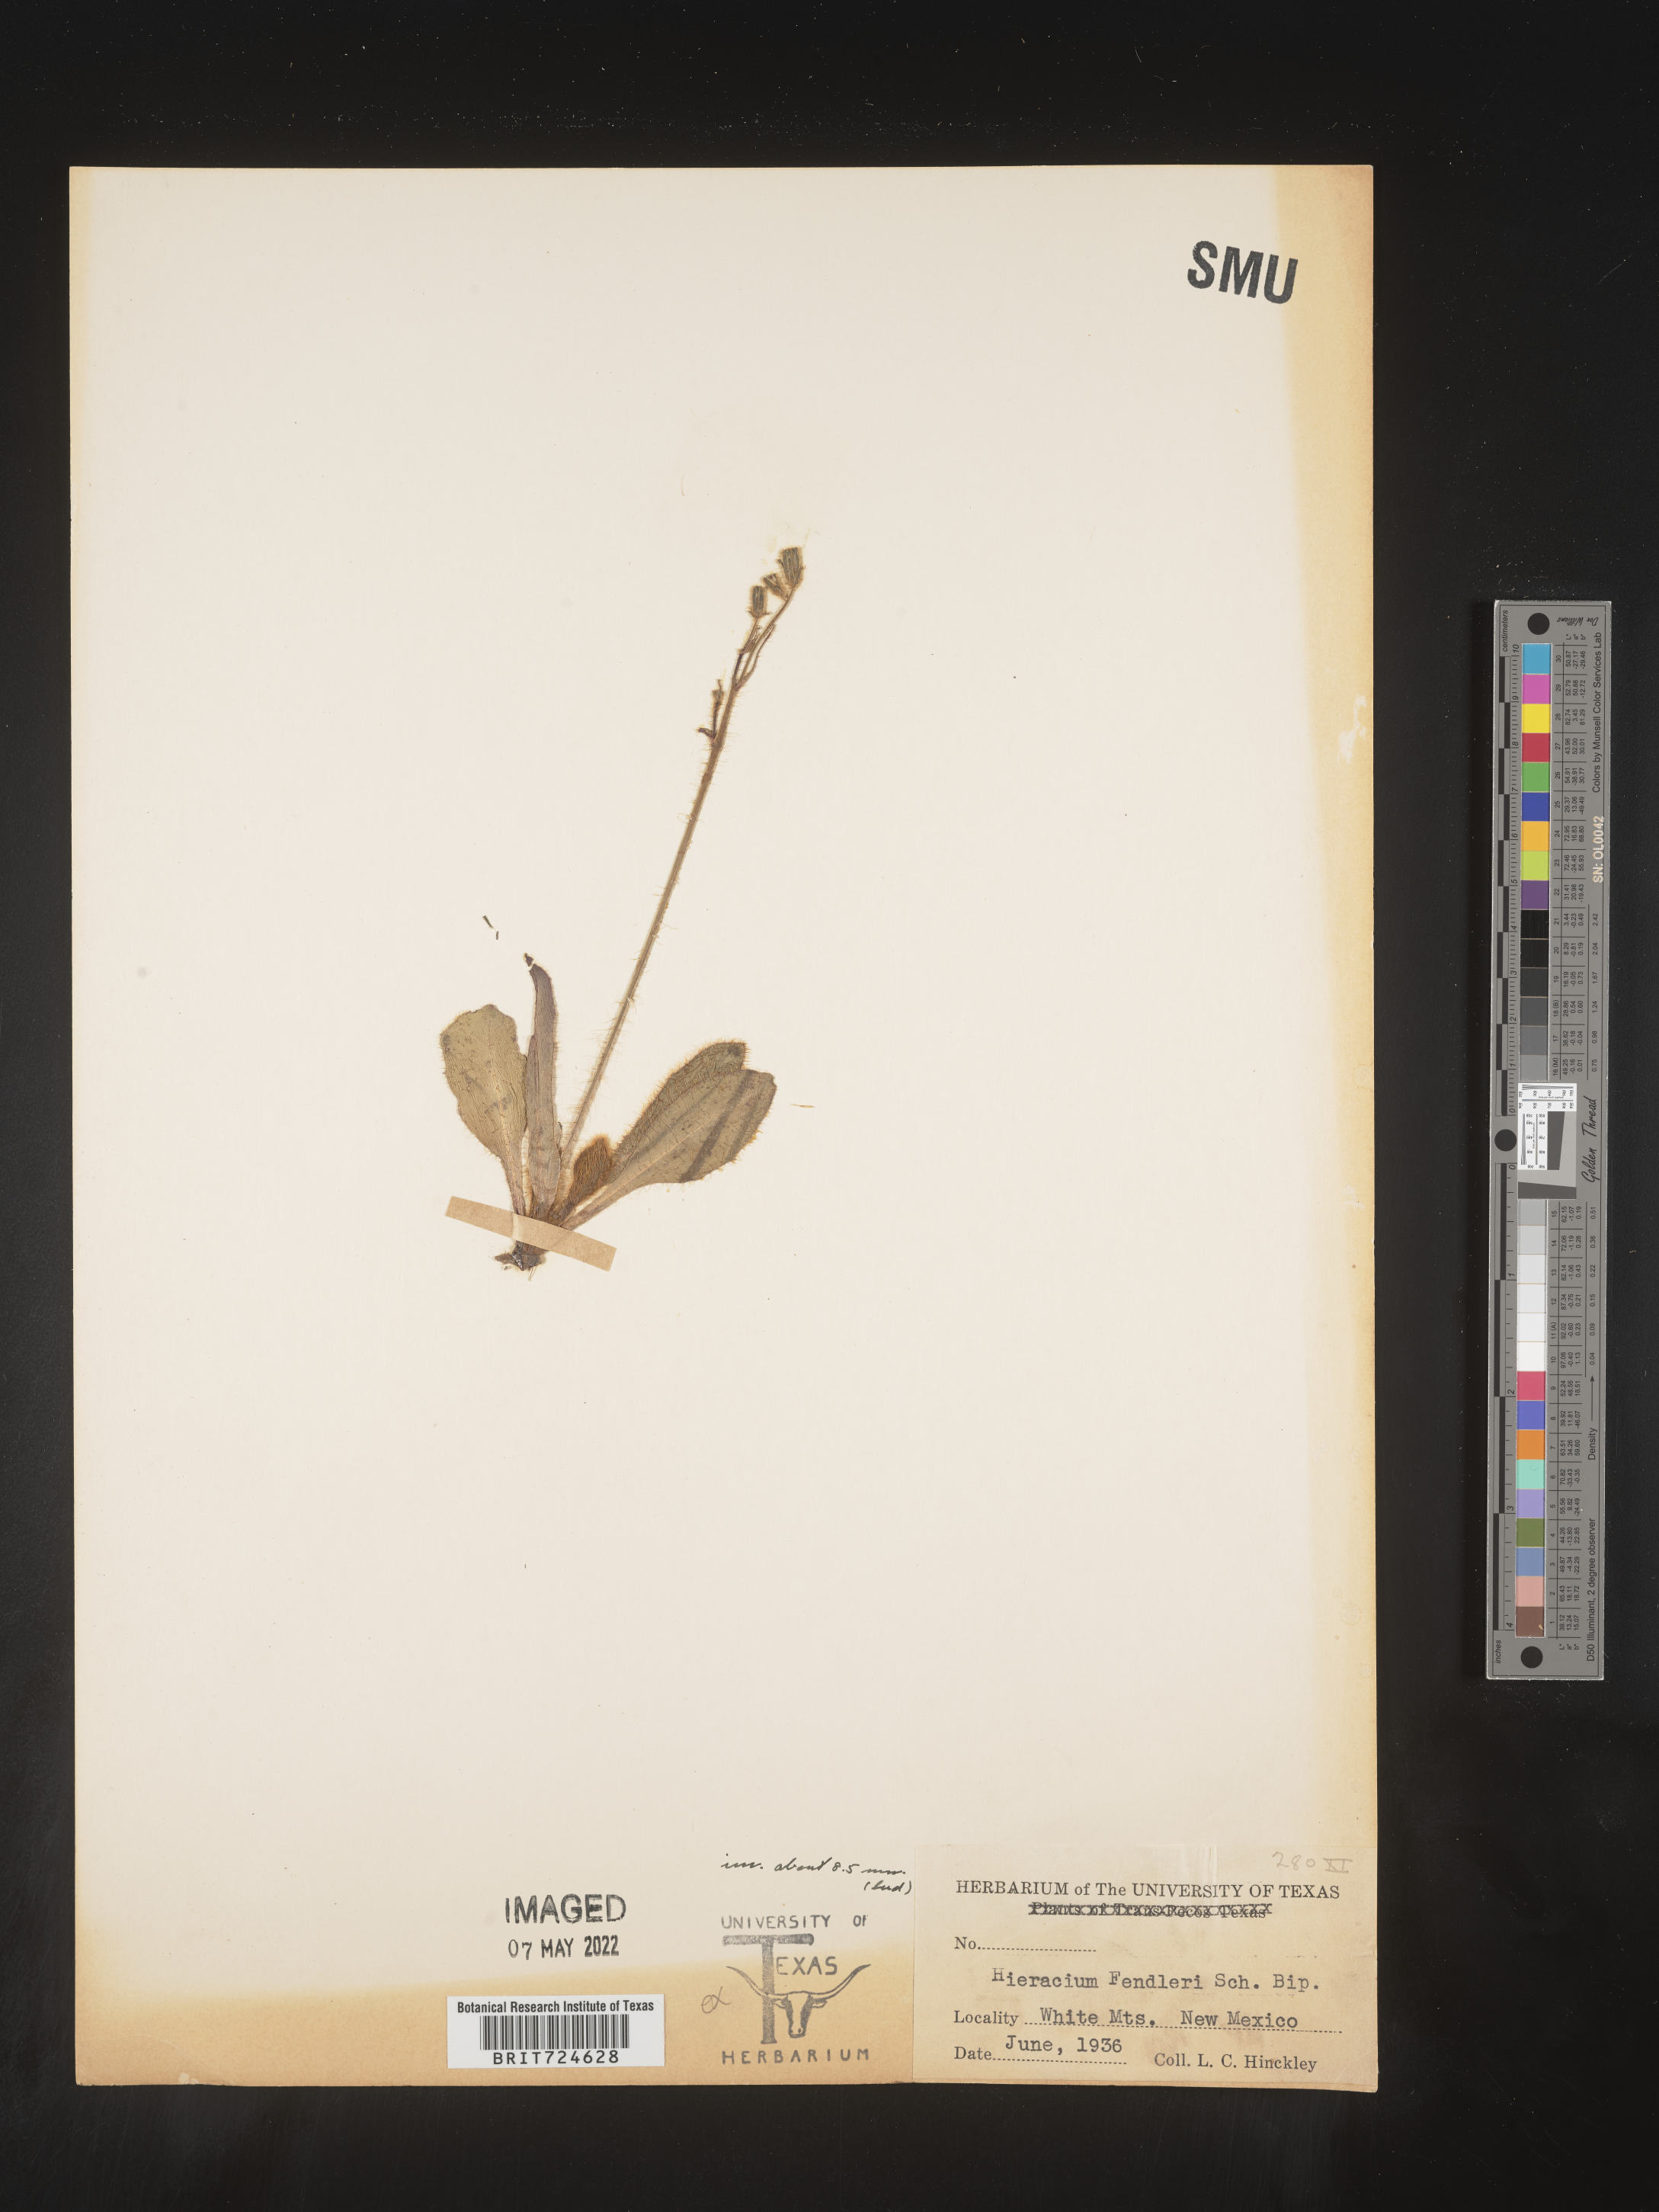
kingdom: Plantae
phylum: Tracheophyta
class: Magnoliopsida
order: Asterales
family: Asteraceae
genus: Hieracium
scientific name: Hieracium
